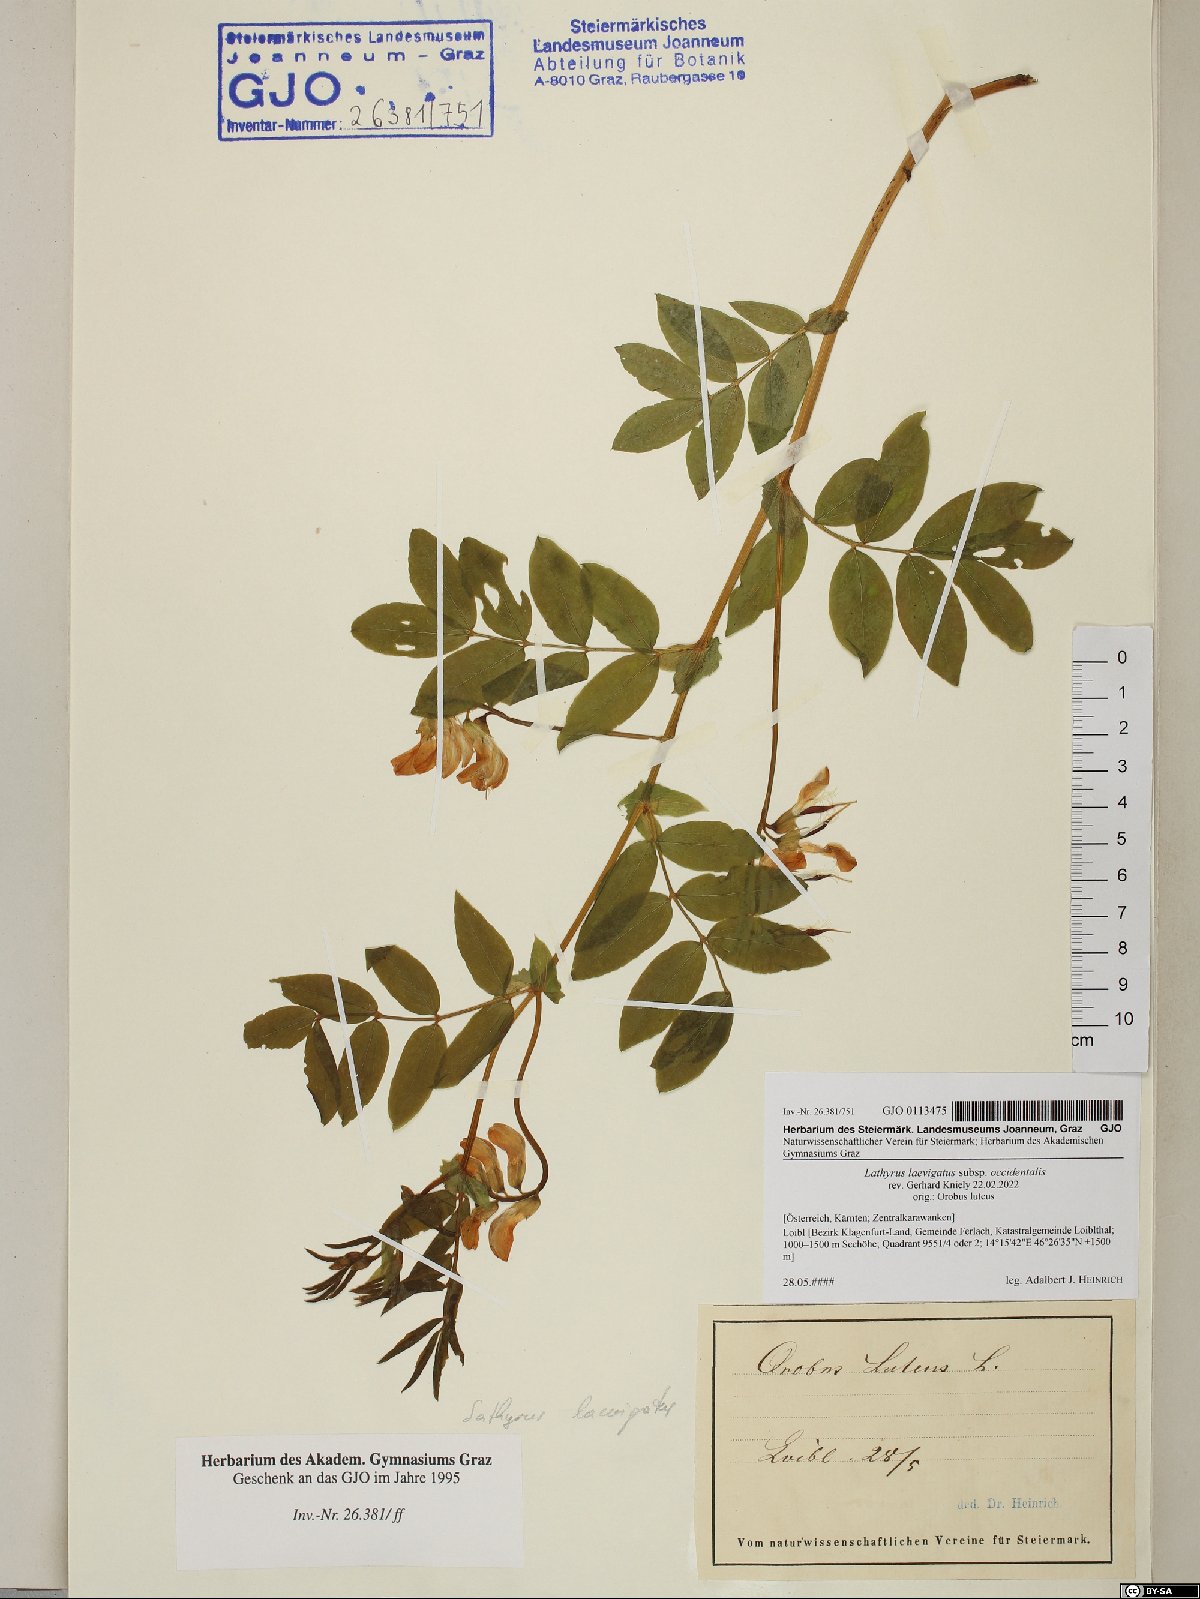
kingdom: Plantae
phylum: Tracheophyta
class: Magnoliopsida
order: Fabales
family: Fabaceae
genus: Lathyrus
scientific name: Lathyrus laevigatus
